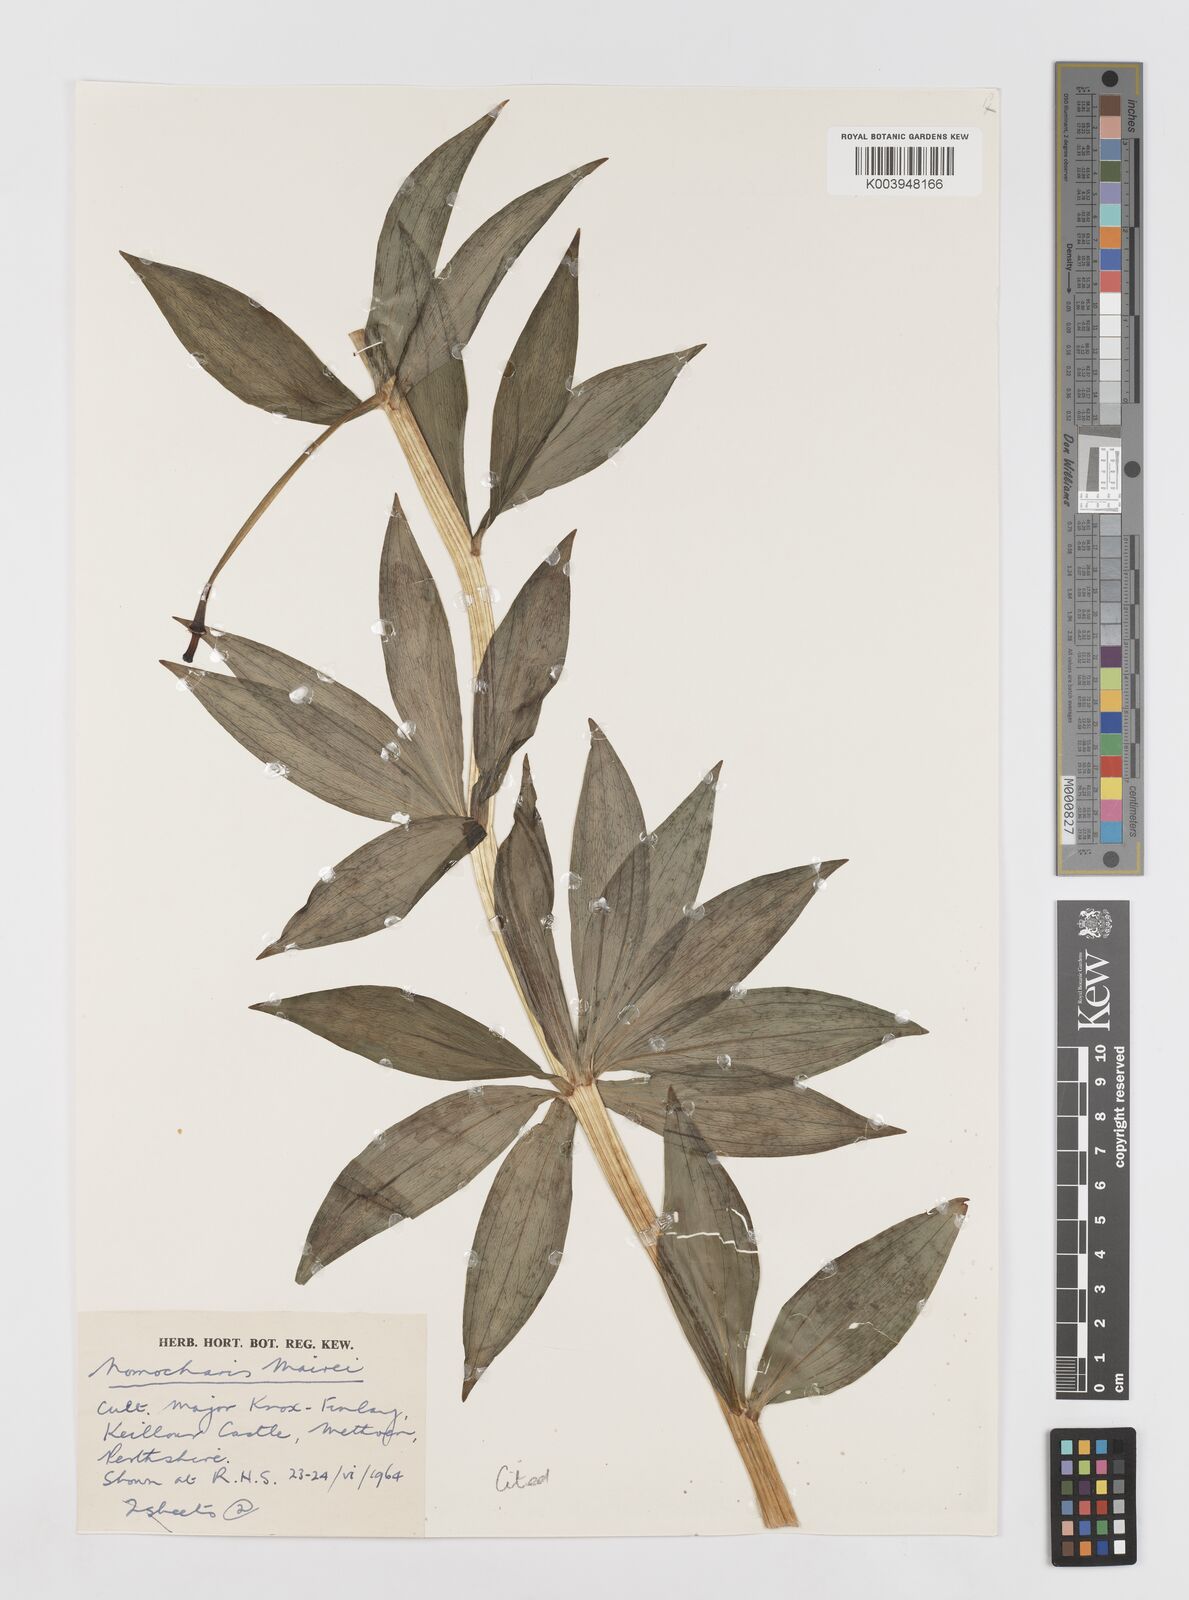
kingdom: Plantae
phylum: Tracheophyta
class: Liliopsida
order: Liliales
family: Liliaceae
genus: Lilium
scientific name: Lilium pardanthinum
